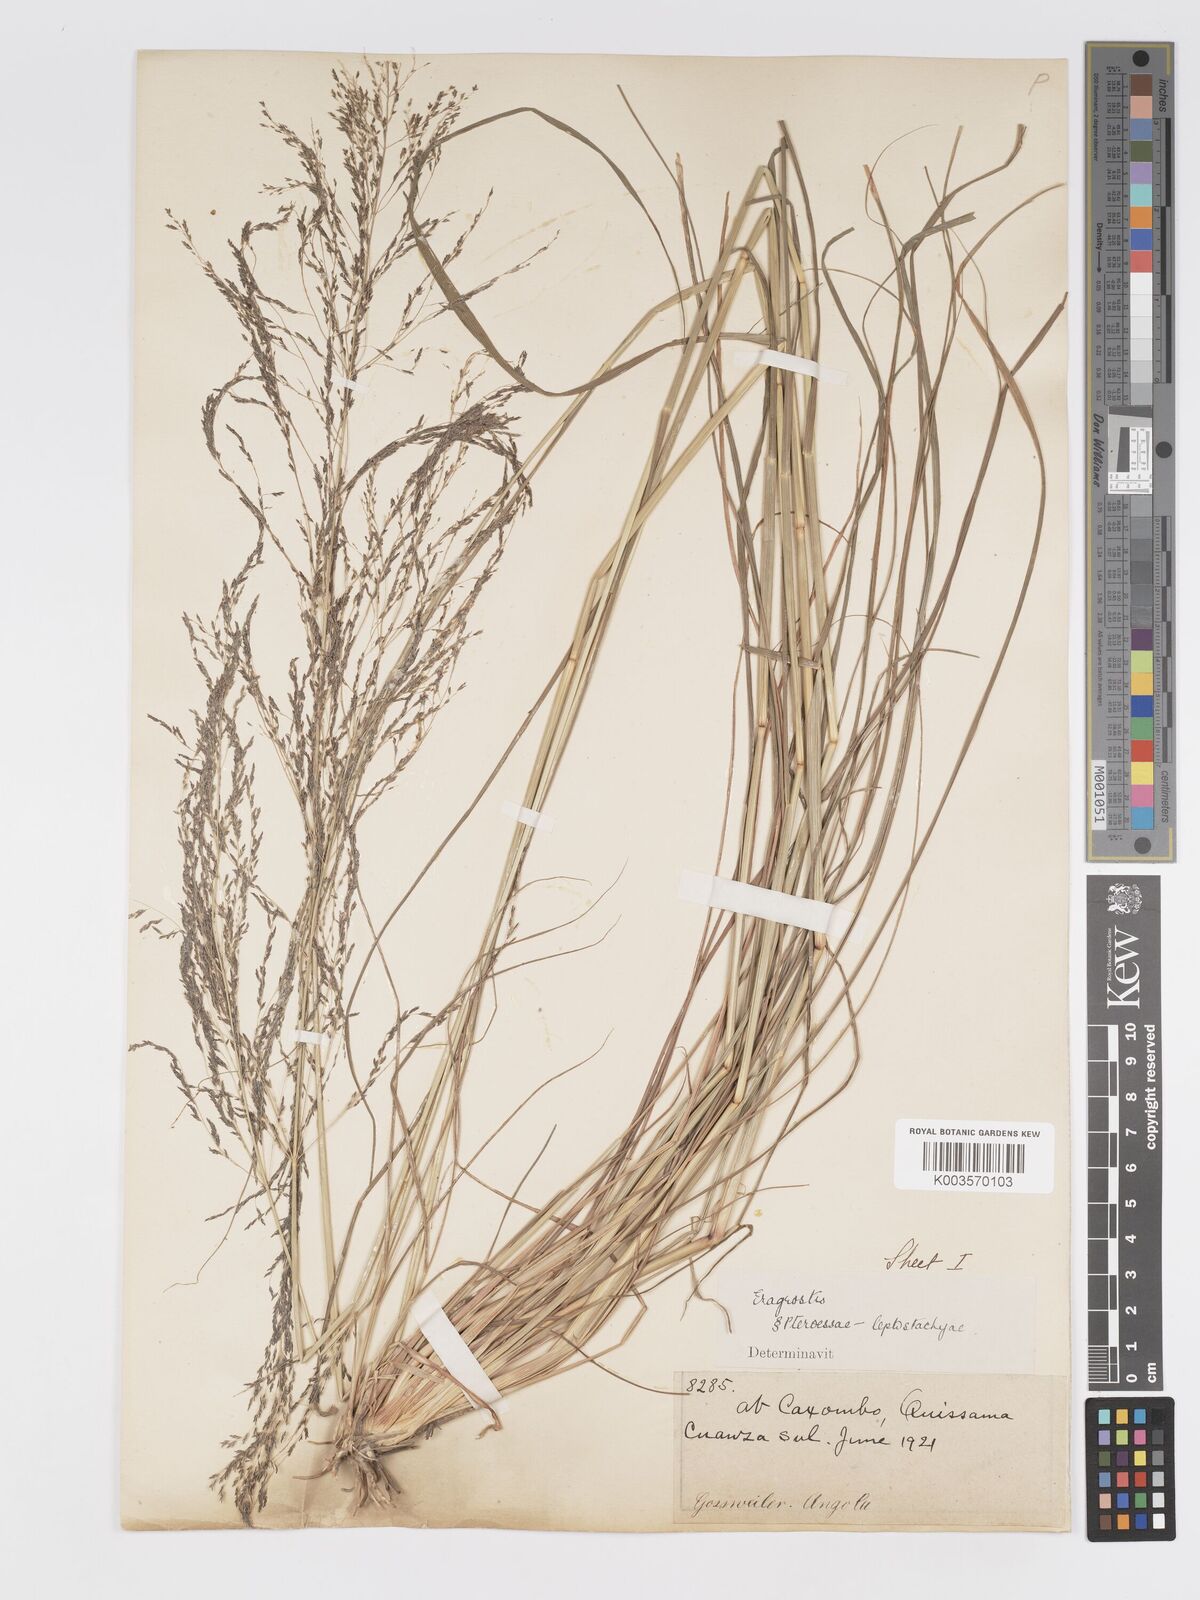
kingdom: Plantae
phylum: Tracheophyta
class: Liliopsida
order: Poales
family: Poaceae
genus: Eragrostis
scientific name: Eragrostis rotifer
